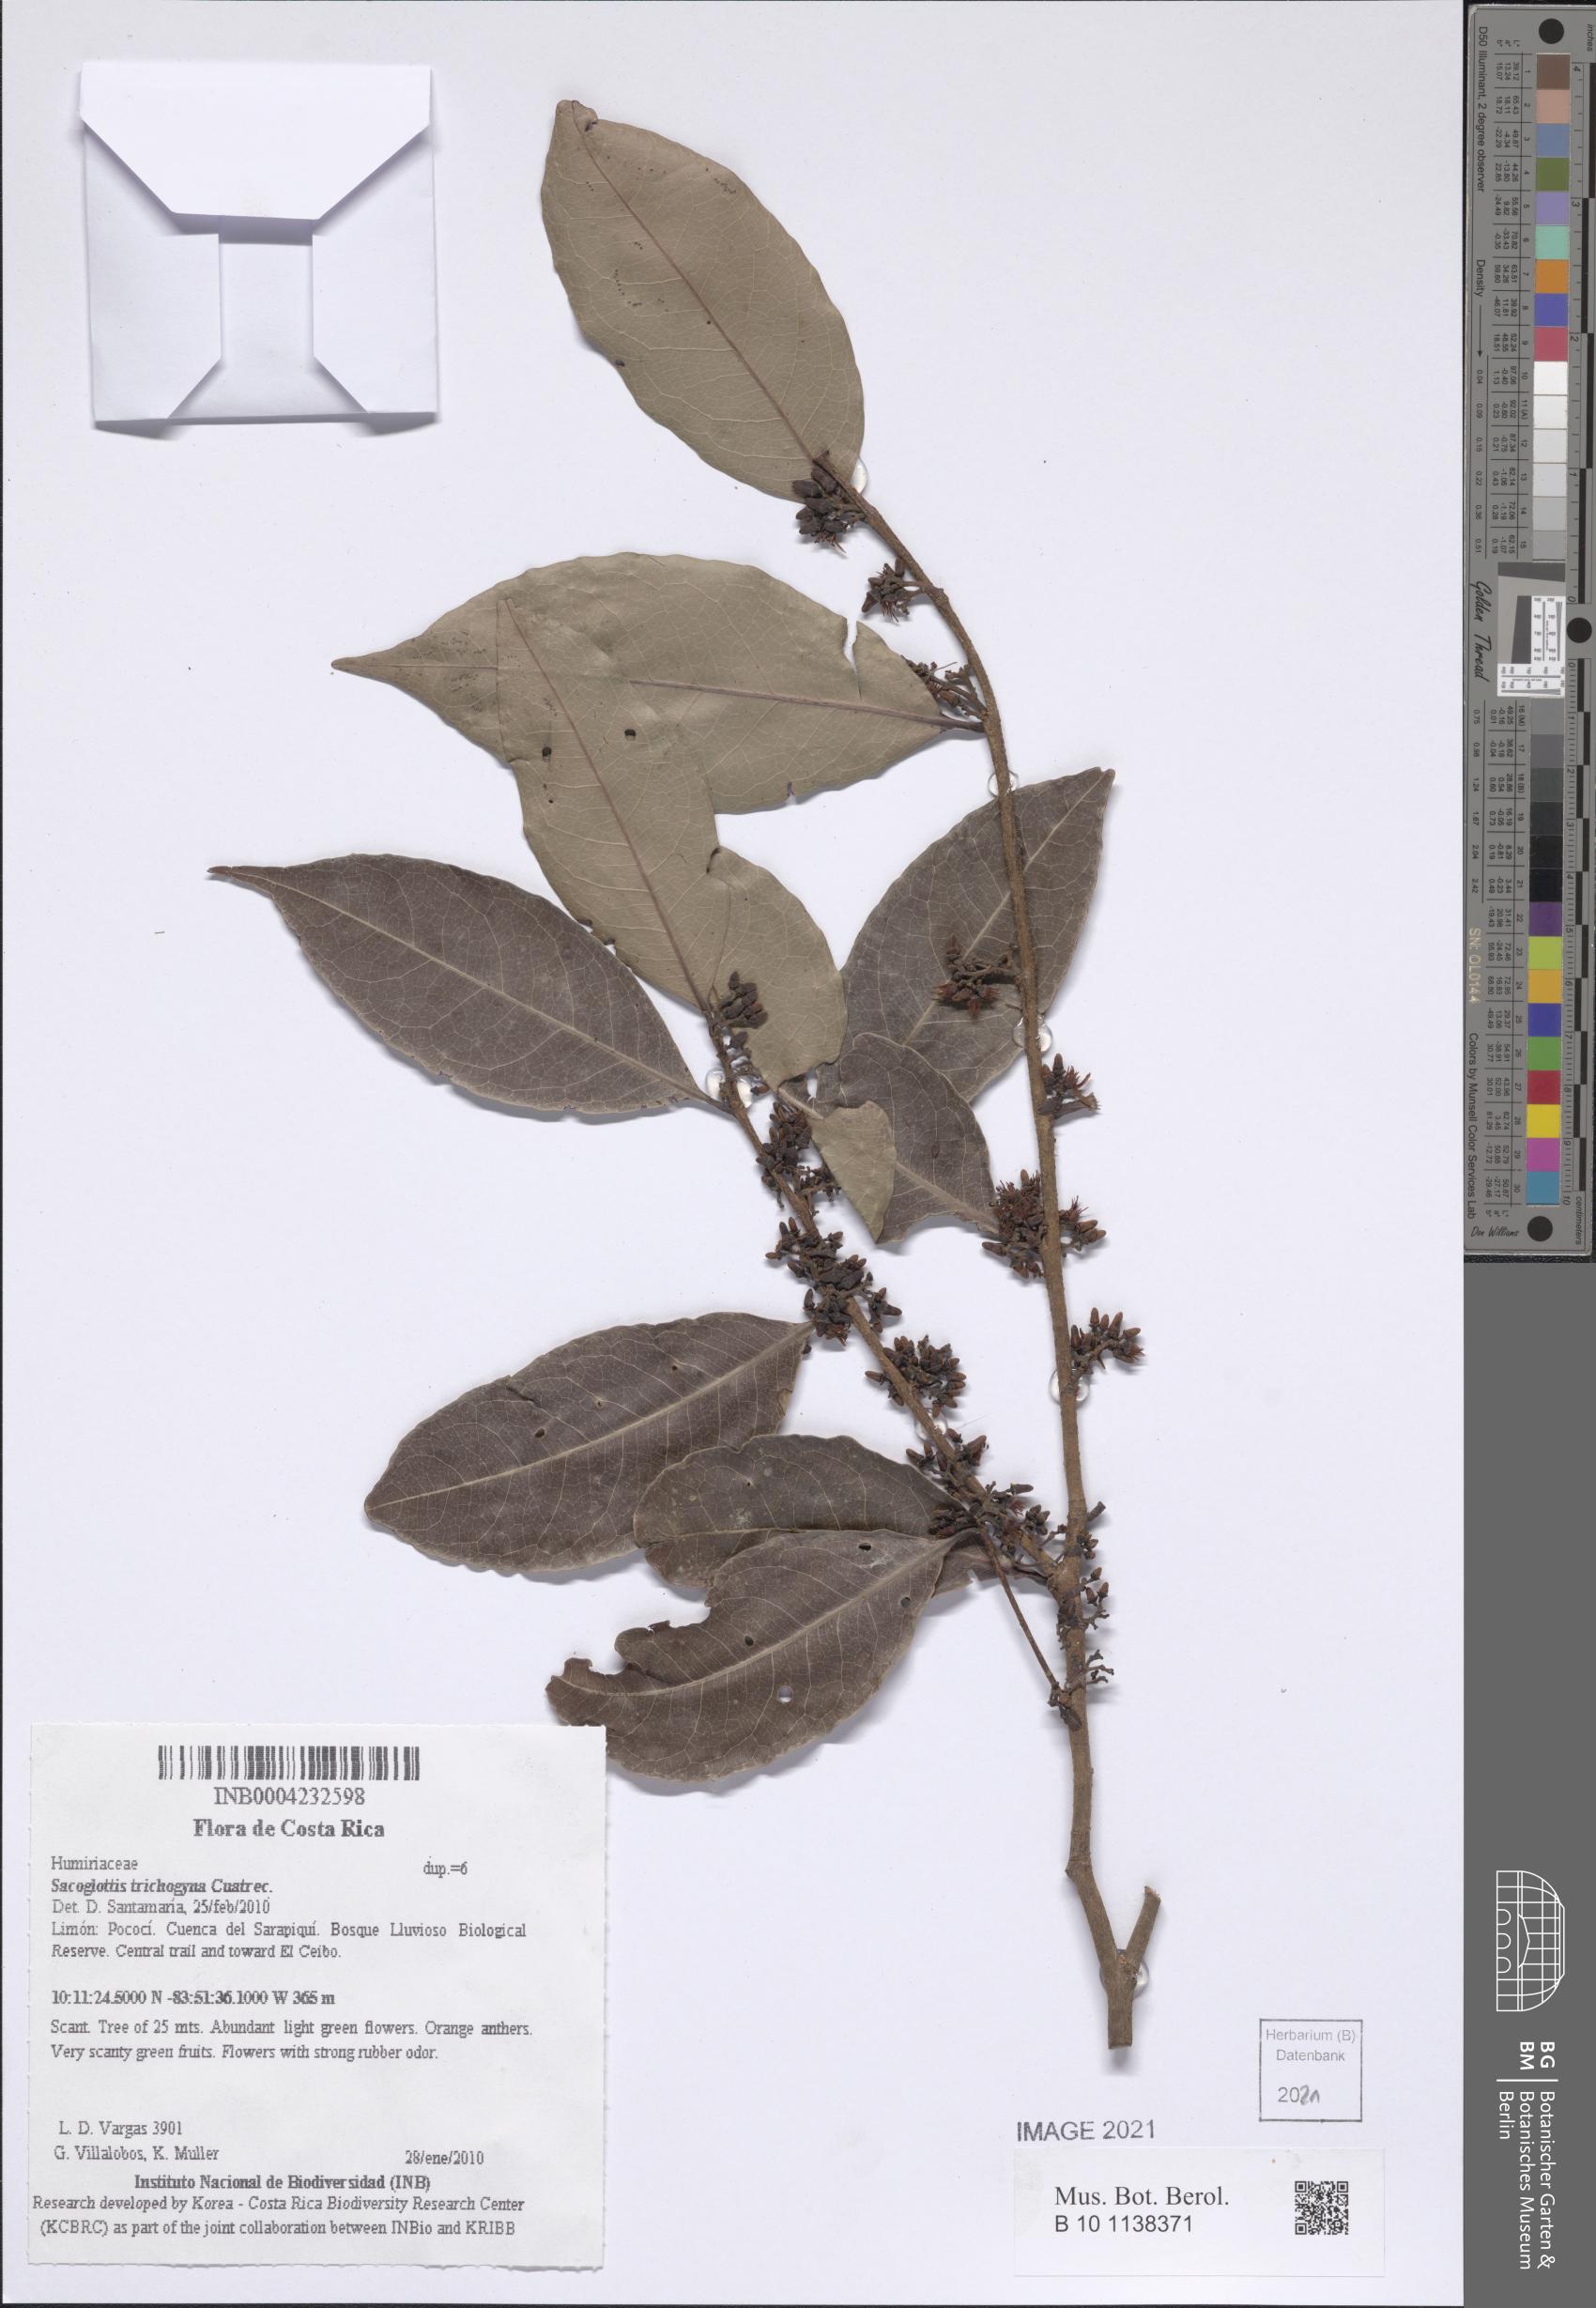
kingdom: Plantae
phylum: Tracheophyta
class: Magnoliopsida
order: Malpighiales
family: Humiriaceae
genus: Sacoglottis
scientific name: Sacoglottis trichogyna
